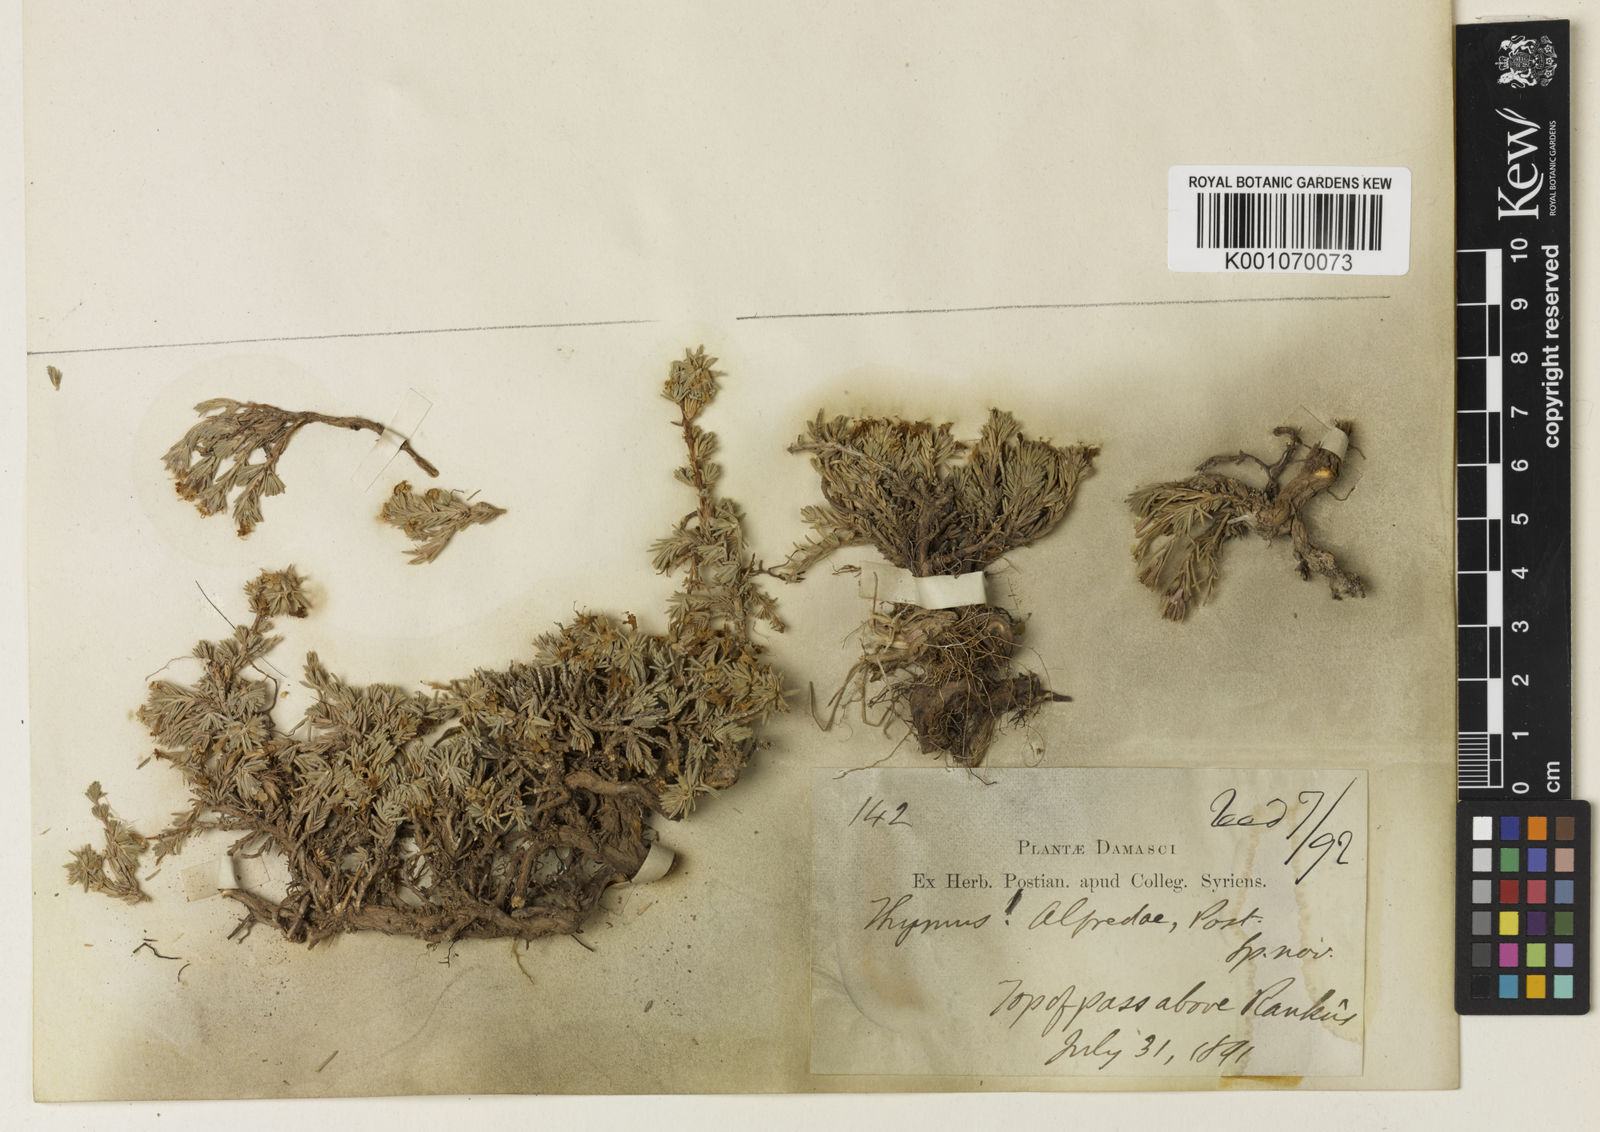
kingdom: Plantae
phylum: Tracheophyta
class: Magnoliopsida
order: Lamiales
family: Lamiaceae
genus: Thymus
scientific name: Thymus alfredae
